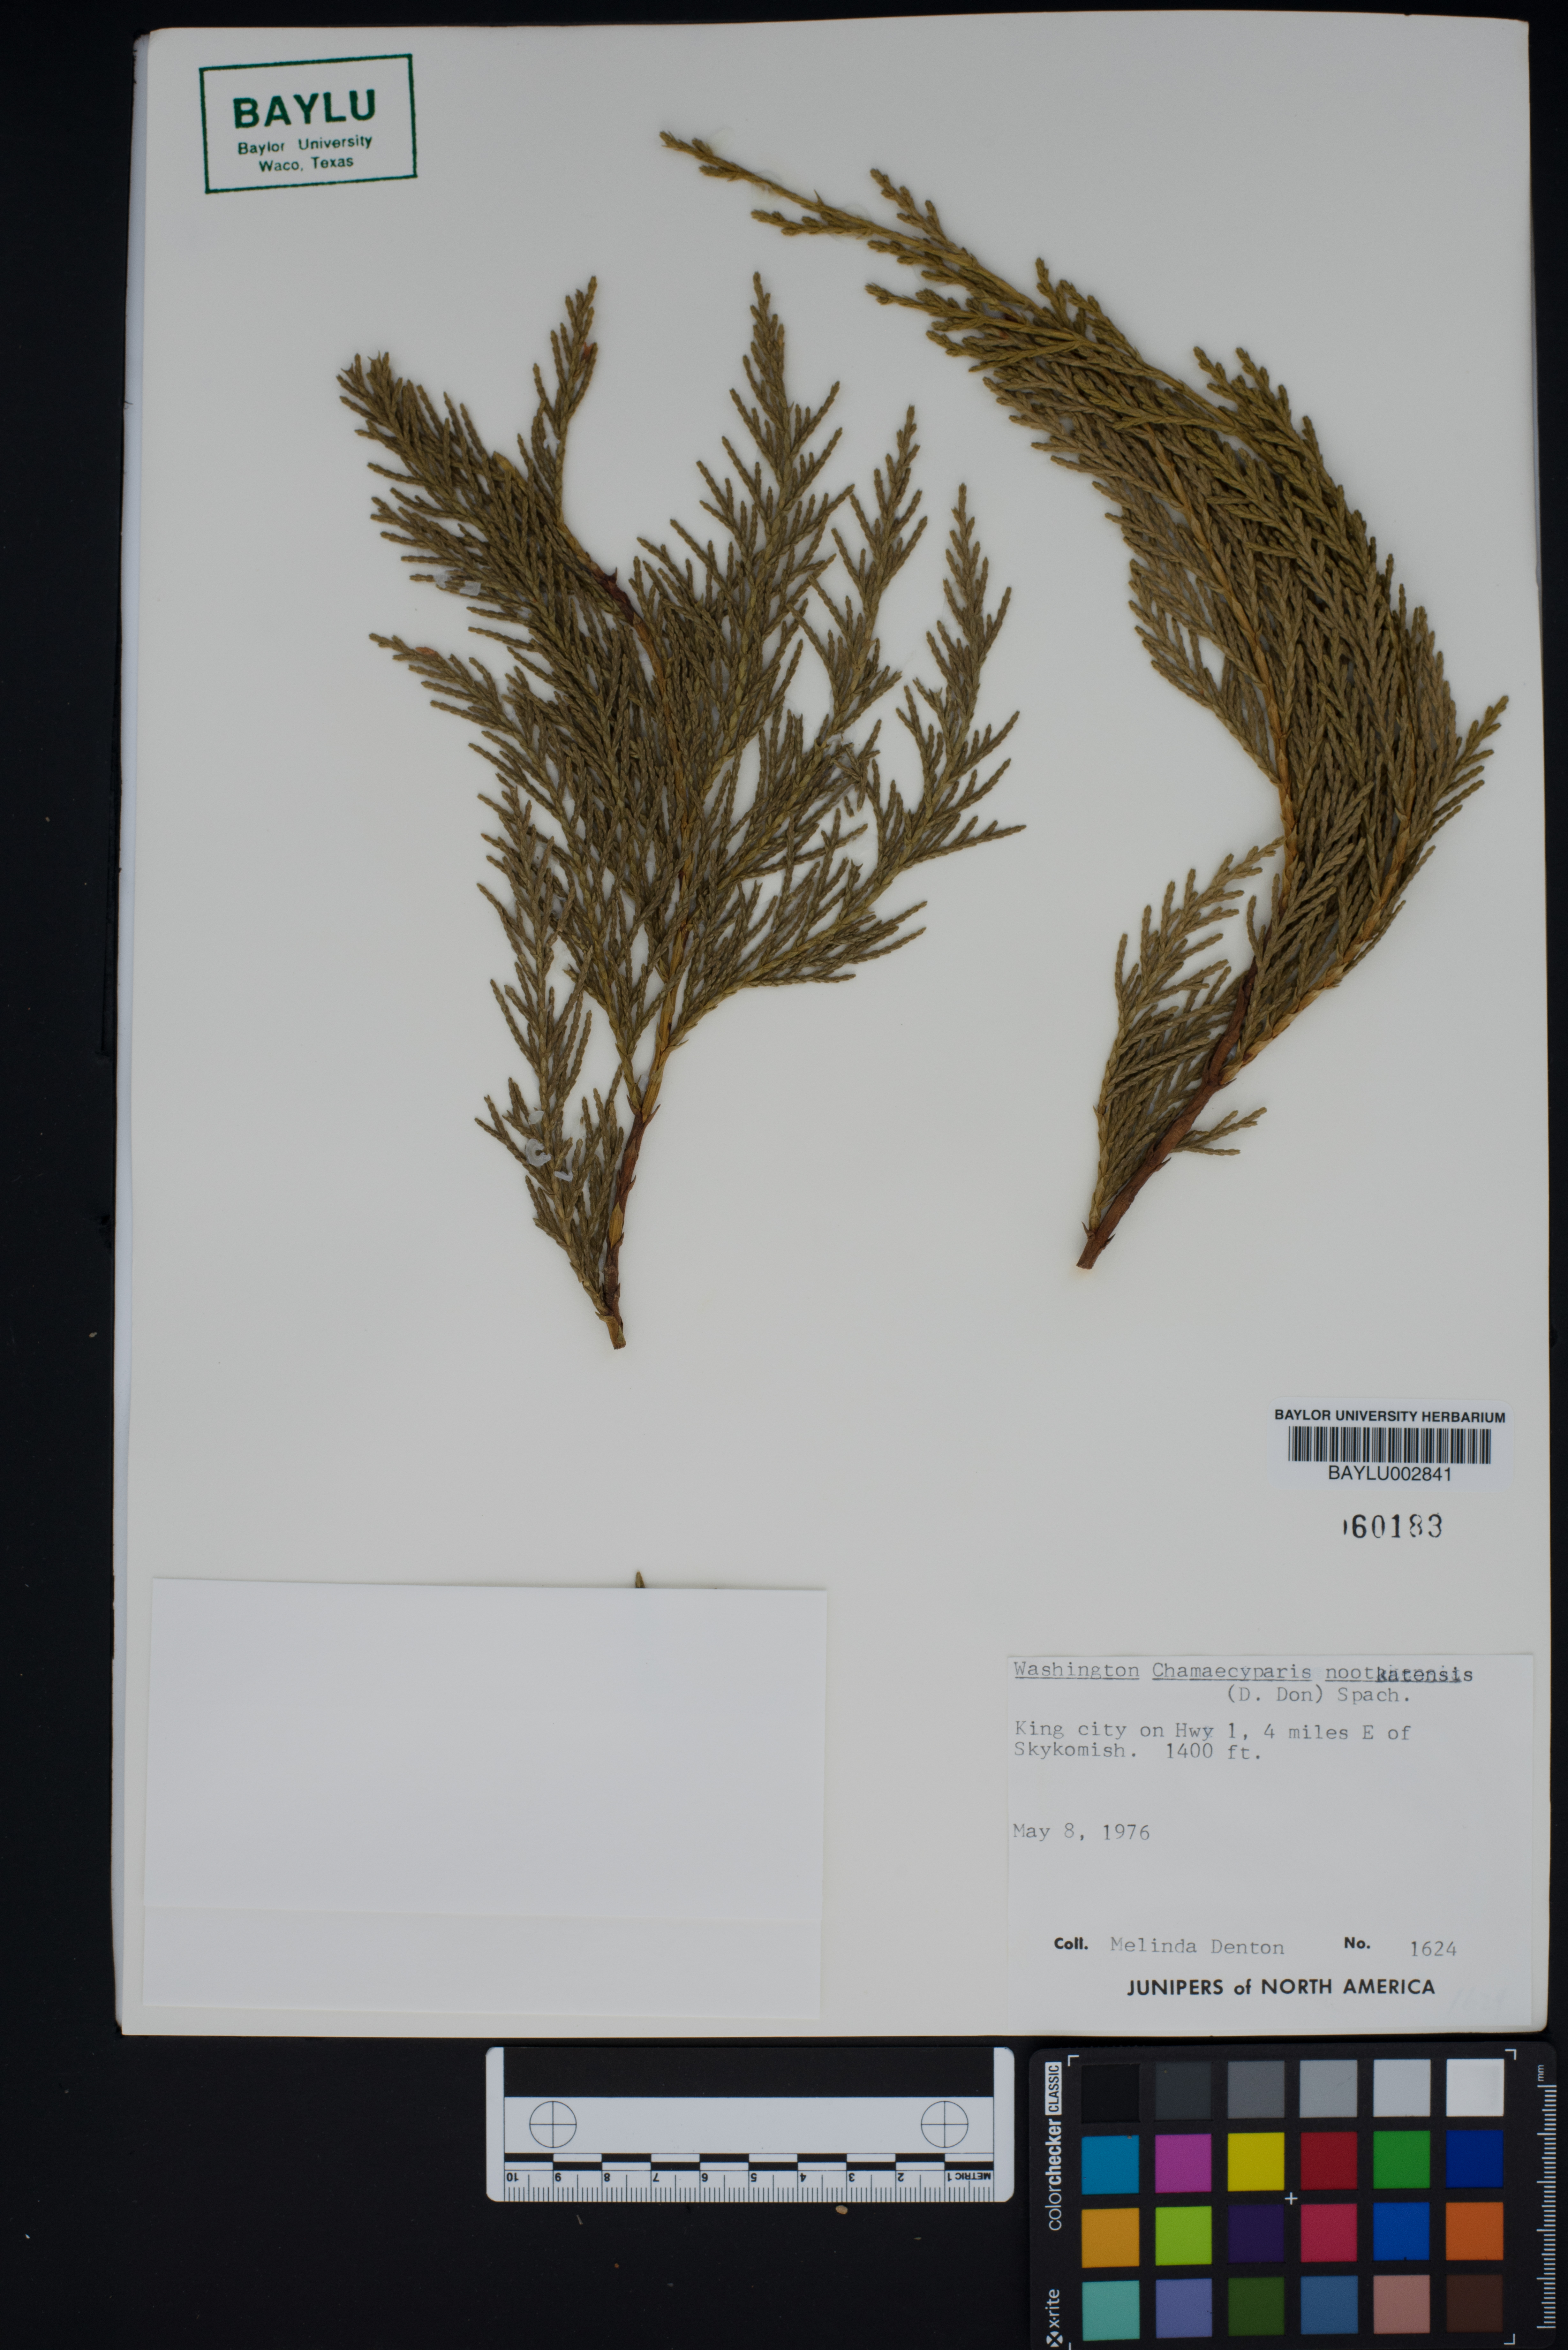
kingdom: Plantae
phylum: Tracheophyta
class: Pinopsida
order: Pinales
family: Cupressaceae
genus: Xanthocyparis
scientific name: Xanthocyparis nootkatensis
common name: Nootka cypress
